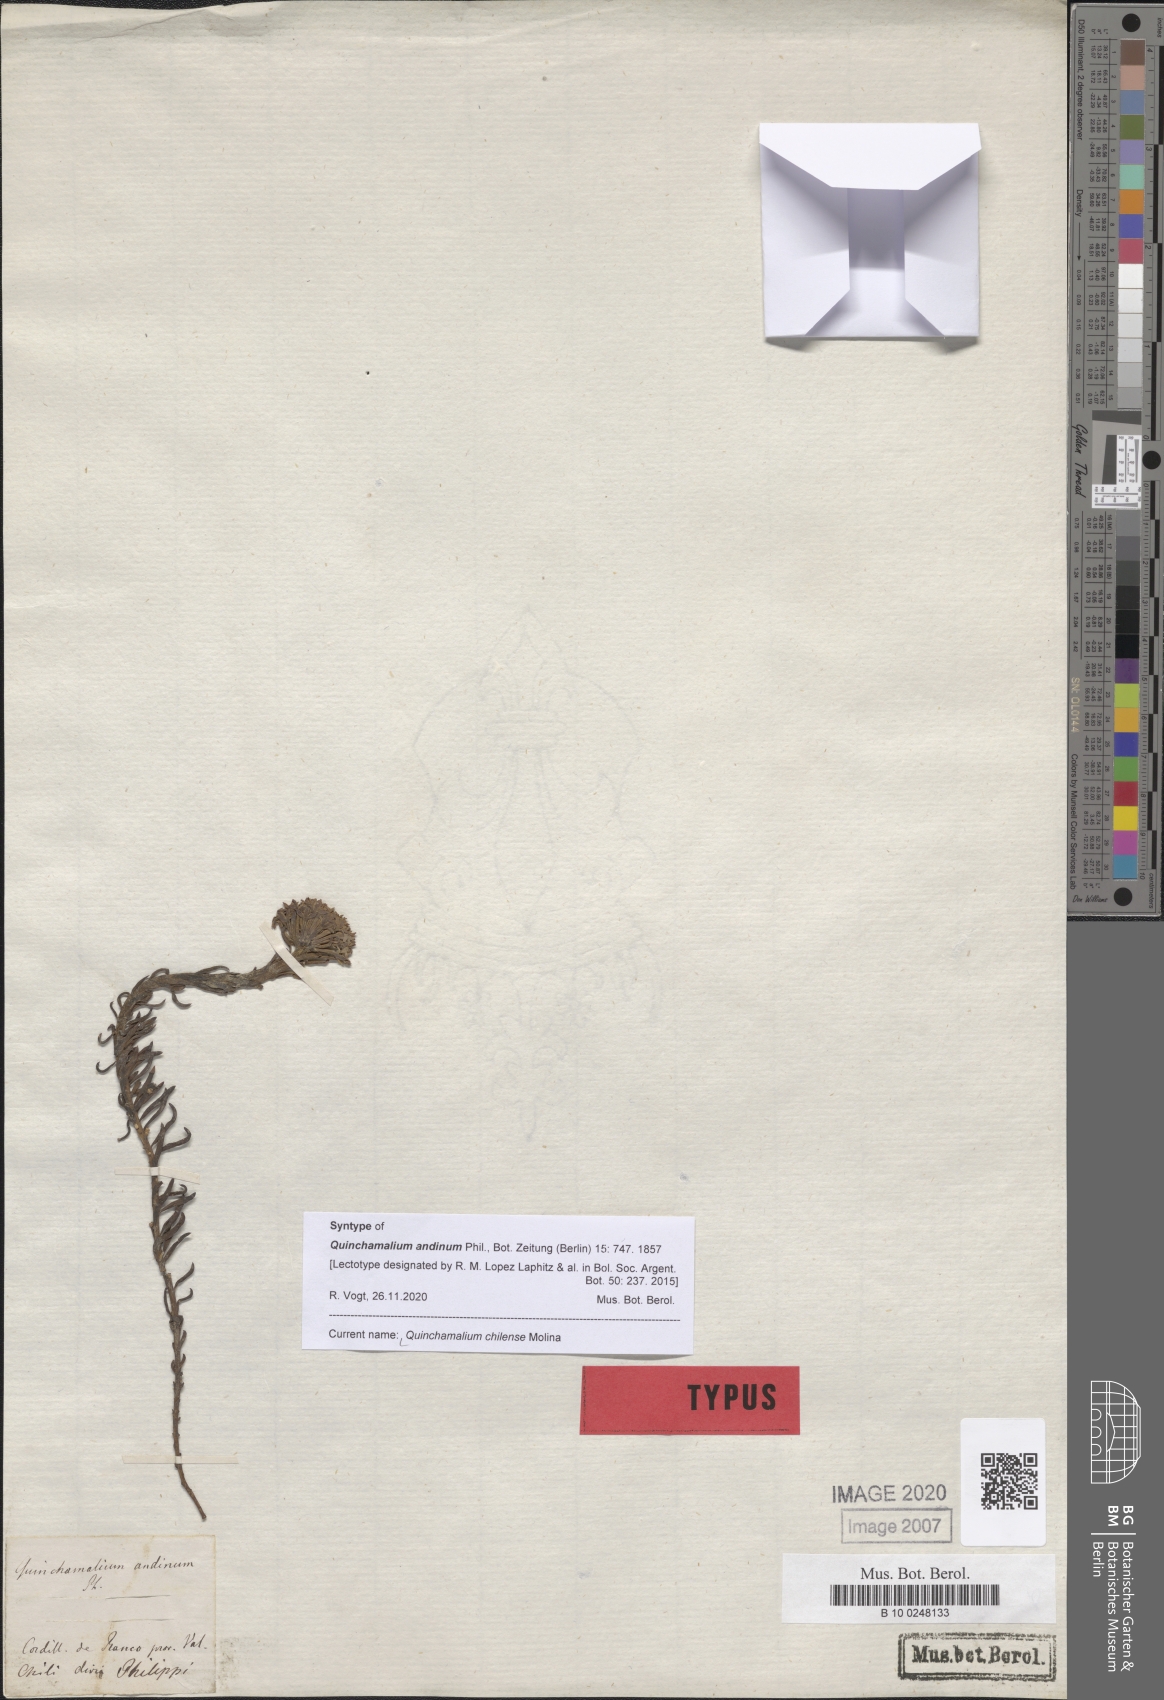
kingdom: Plantae
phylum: Tracheophyta
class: Magnoliopsida
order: Santalales
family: Schoepfiaceae
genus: Quinchamalium
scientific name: Quinchamalium chilense
